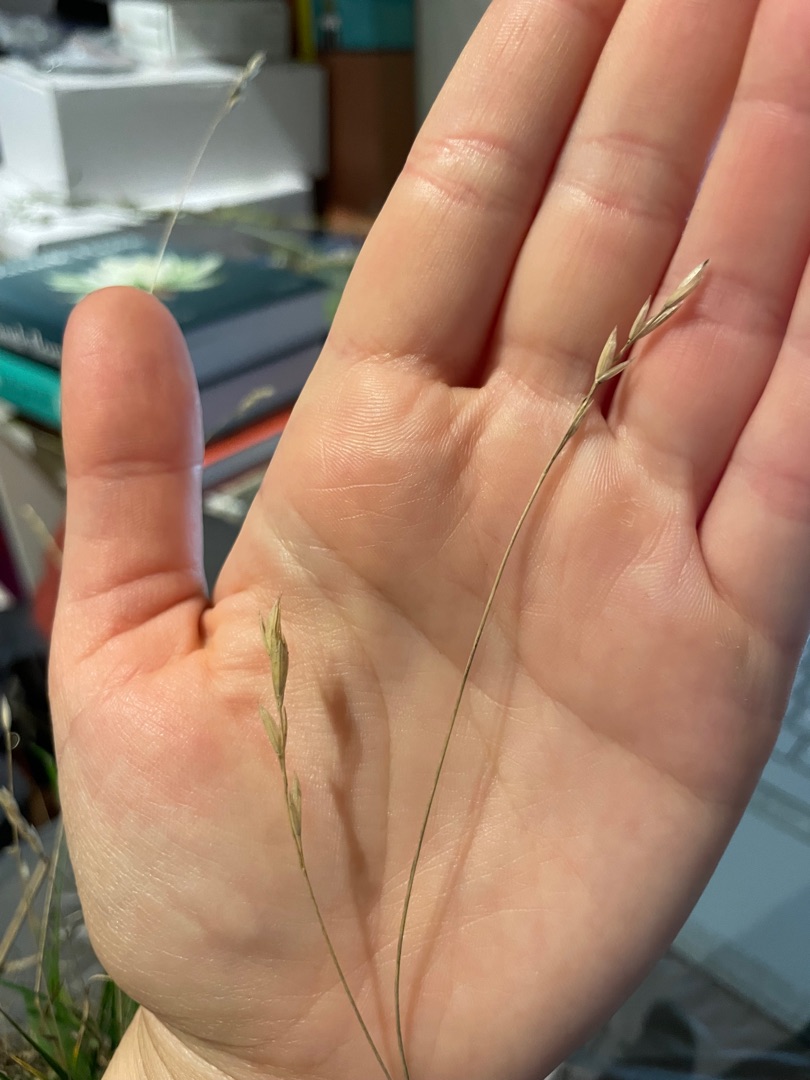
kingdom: Plantae
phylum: Tracheophyta
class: Liliopsida
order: Poales
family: Poaceae
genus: Bromus
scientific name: Bromus hordeaceus
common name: Blød hejre
